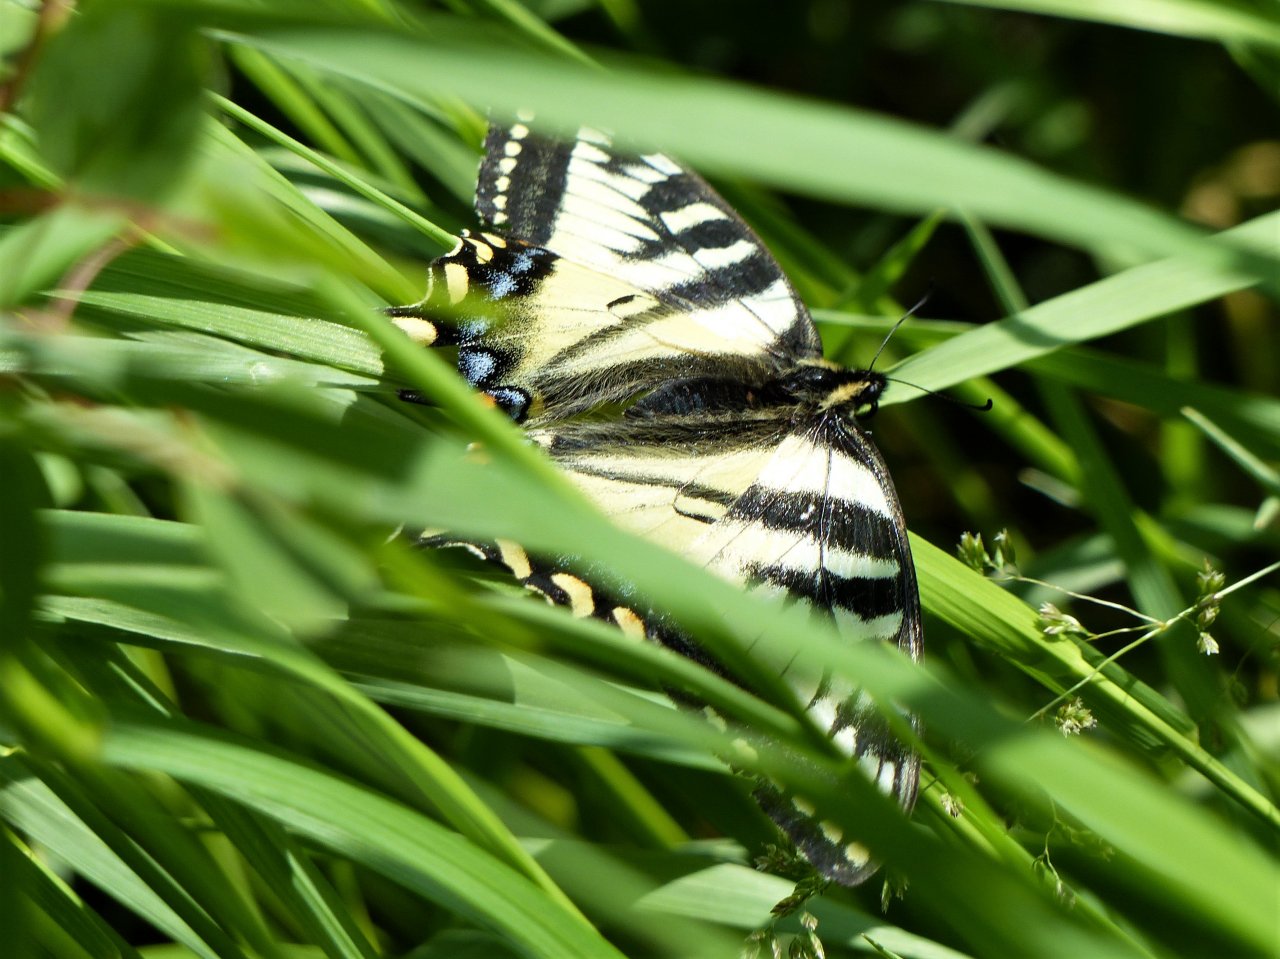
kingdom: Animalia
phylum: Arthropoda
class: Insecta
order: Lepidoptera
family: Papilionidae
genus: Pterourus
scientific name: Pterourus canadensis
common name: Canadian Tiger Swallowtail
